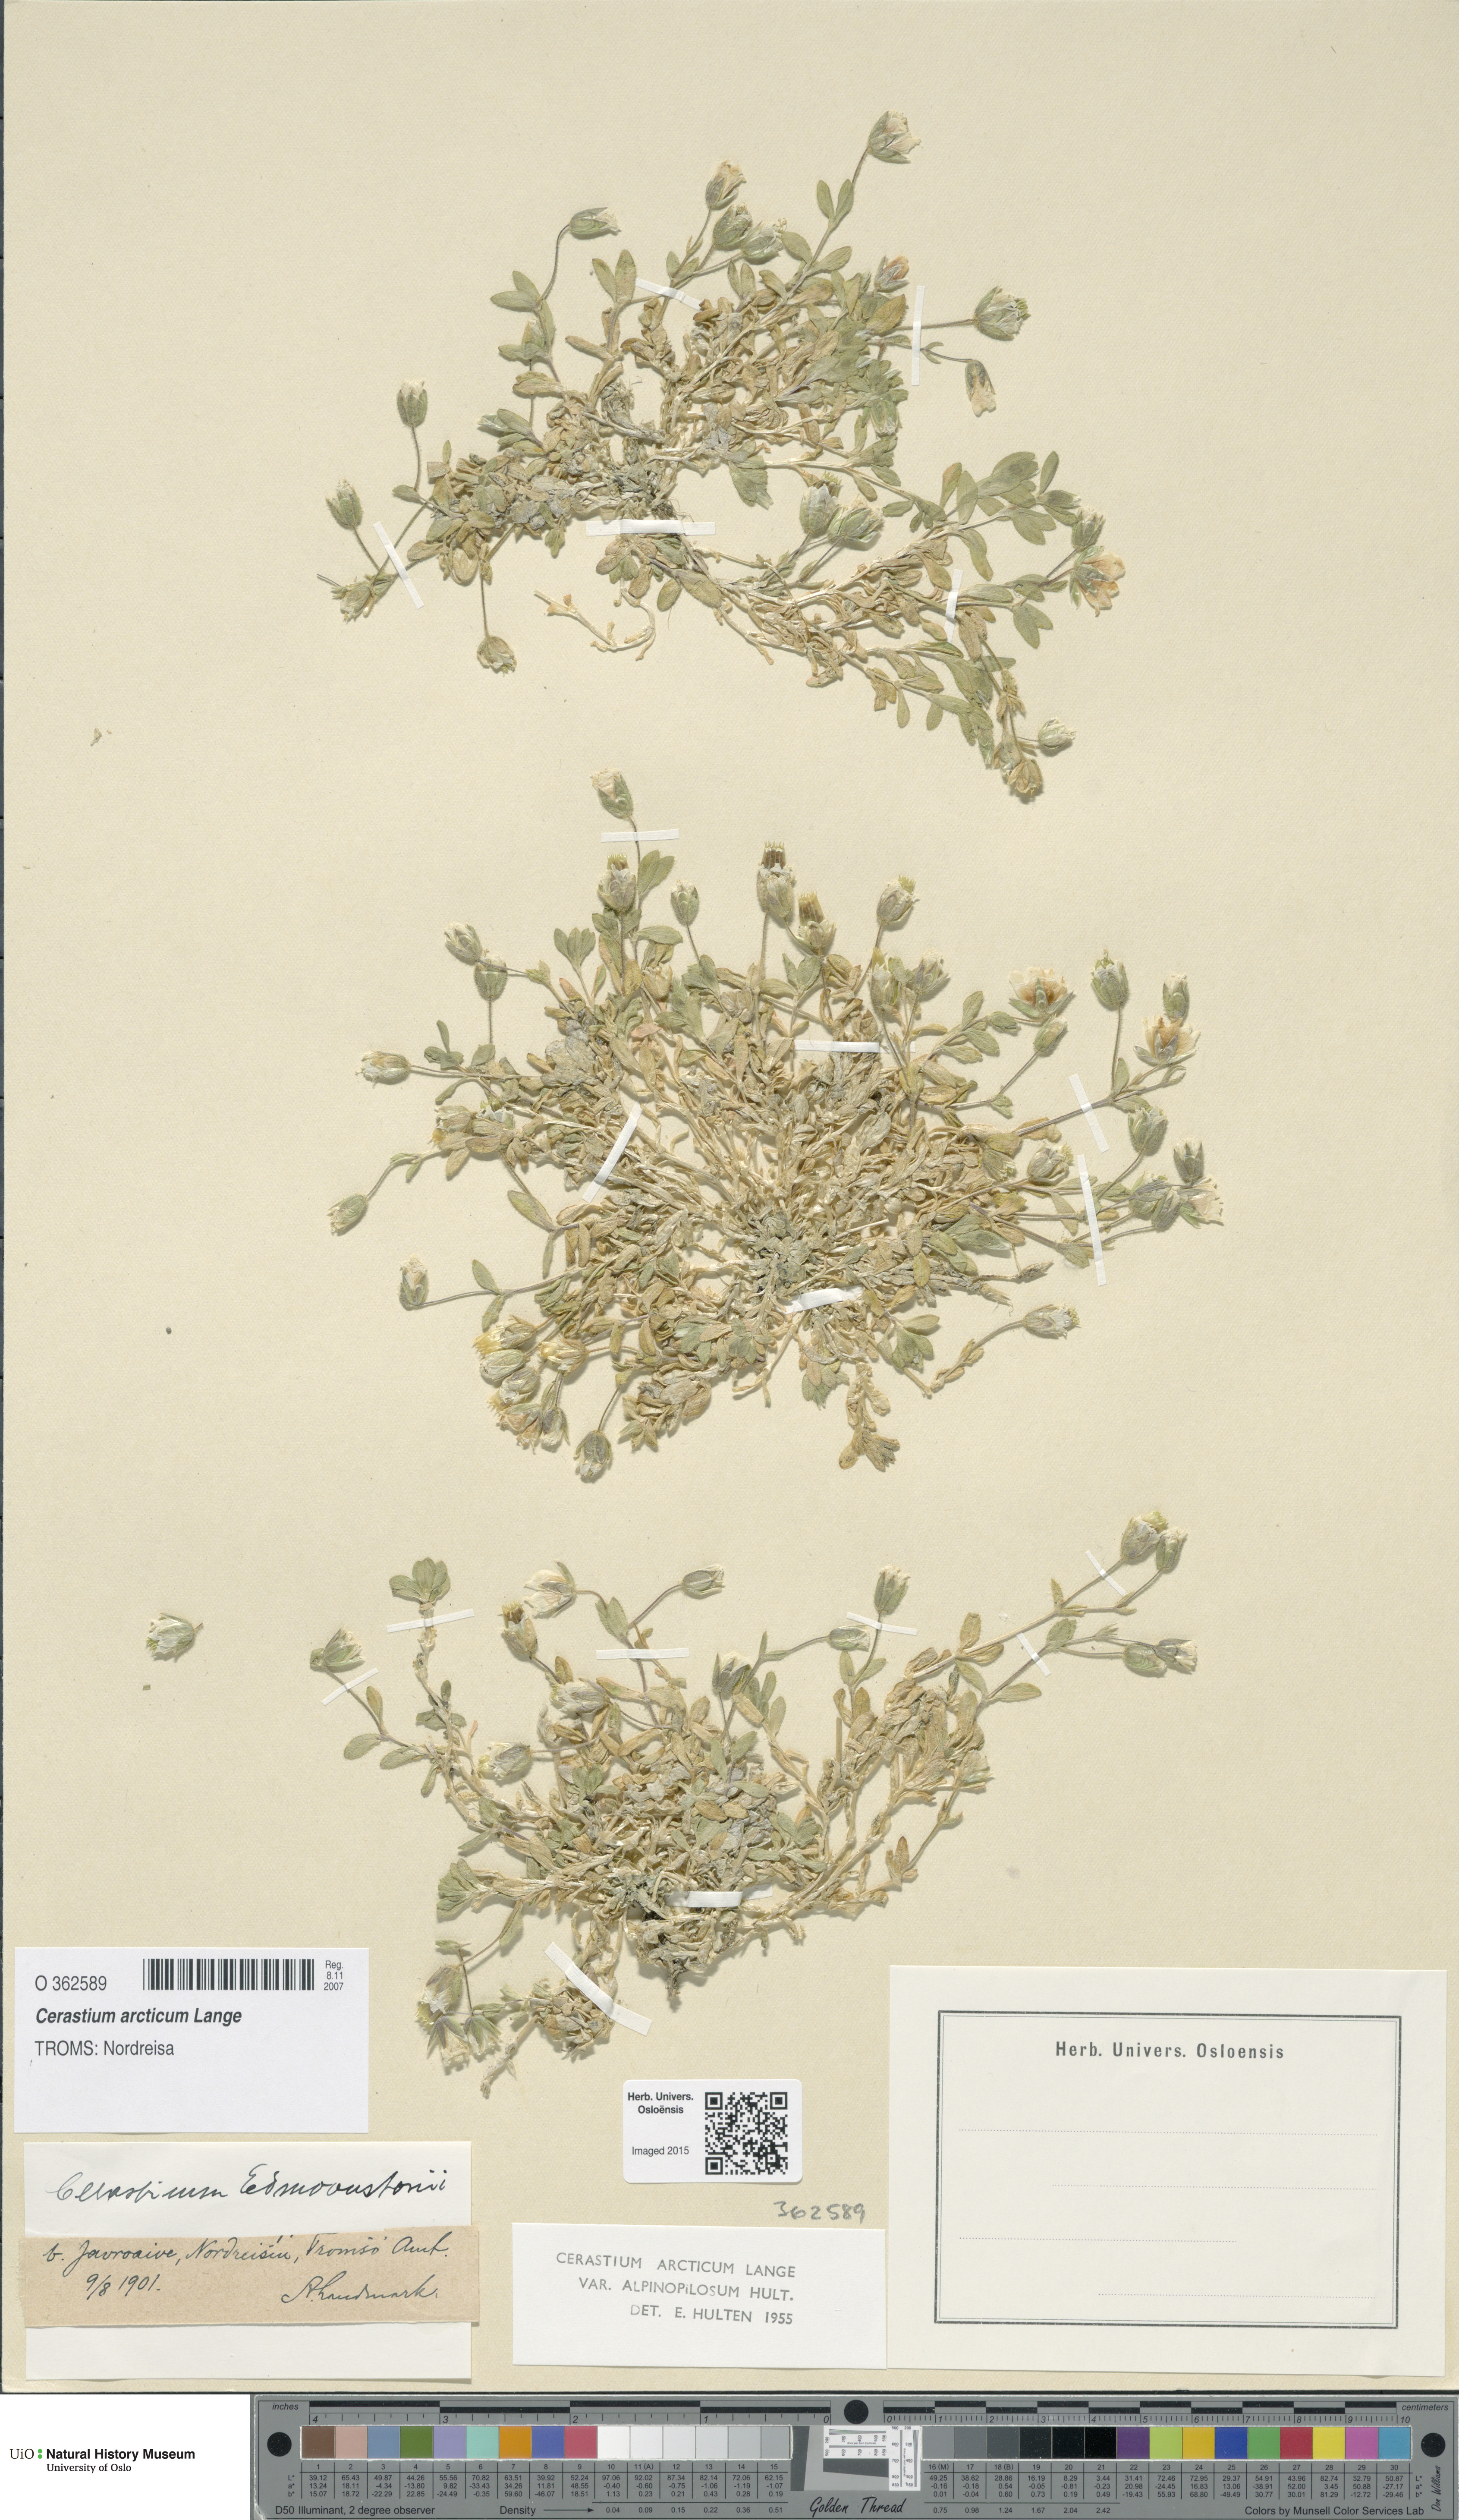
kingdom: Plantae
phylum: Tracheophyta
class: Magnoliopsida
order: Caryophyllales
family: Caryophyllaceae
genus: Cerastium
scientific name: Cerastium arcticum
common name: Arctic mouse-ear
